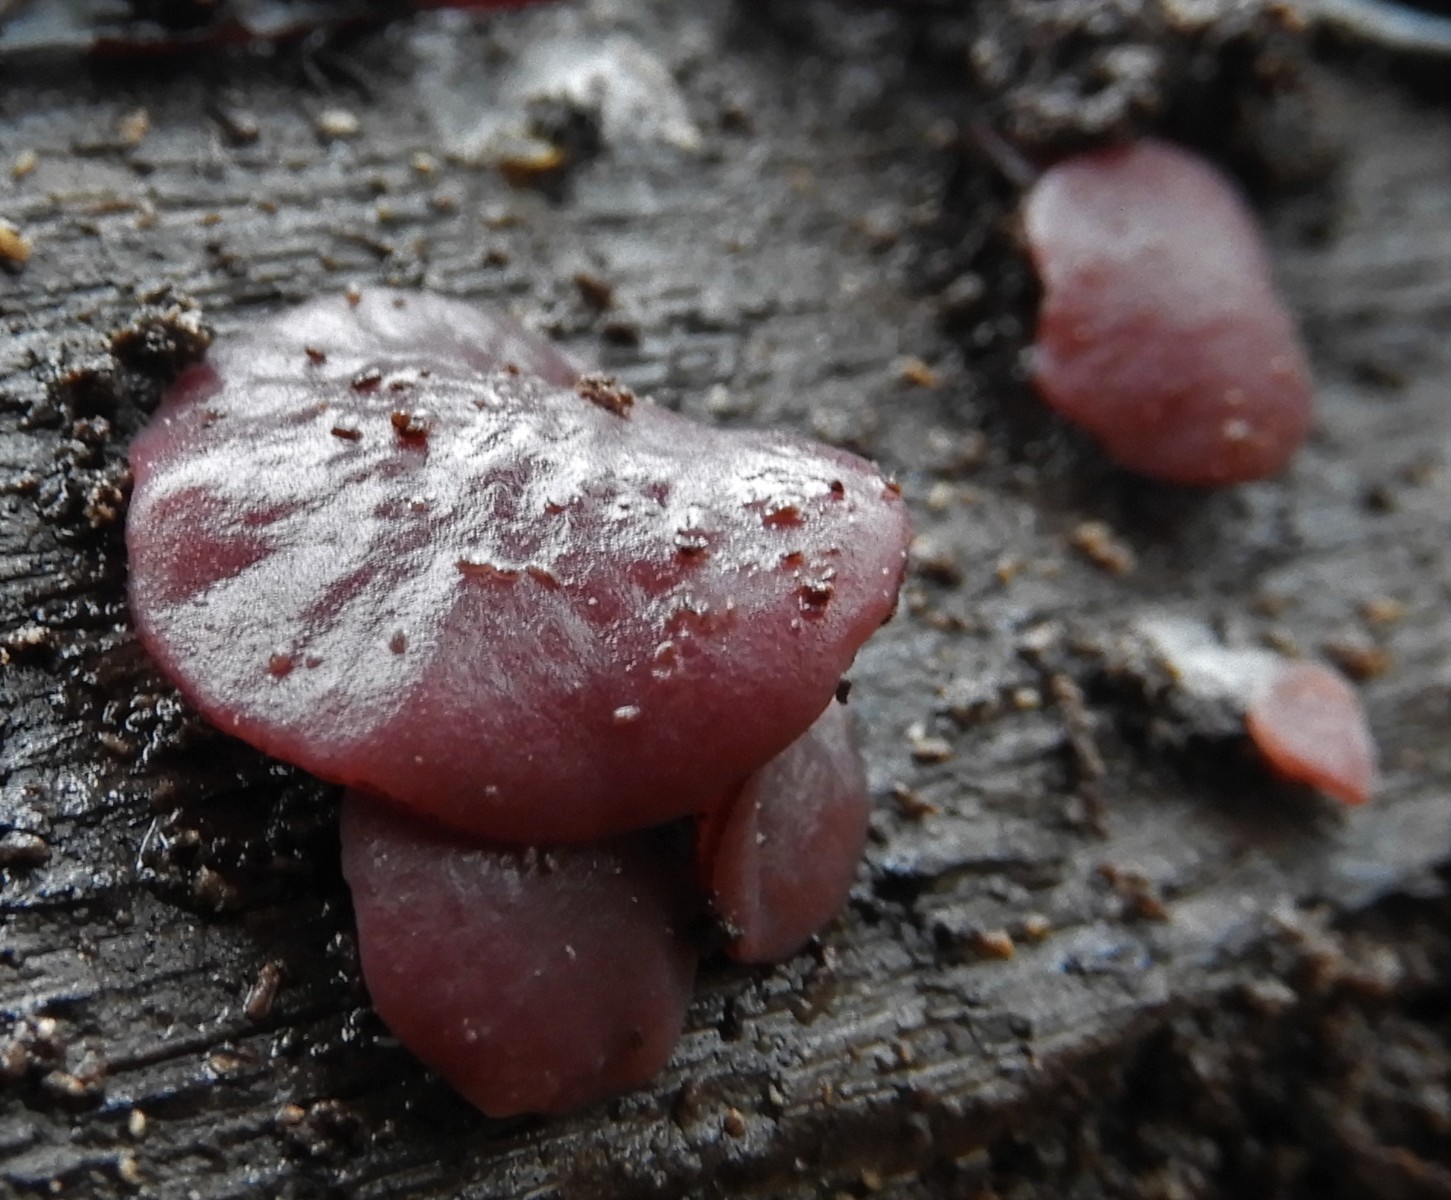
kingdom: Fungi
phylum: Ascomycota
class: Leotiomycetes
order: Helotiales
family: Gelatinodiscaceae
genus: Ascocoryne
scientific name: Ascocoryne cylichnium
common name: stor sejskive
